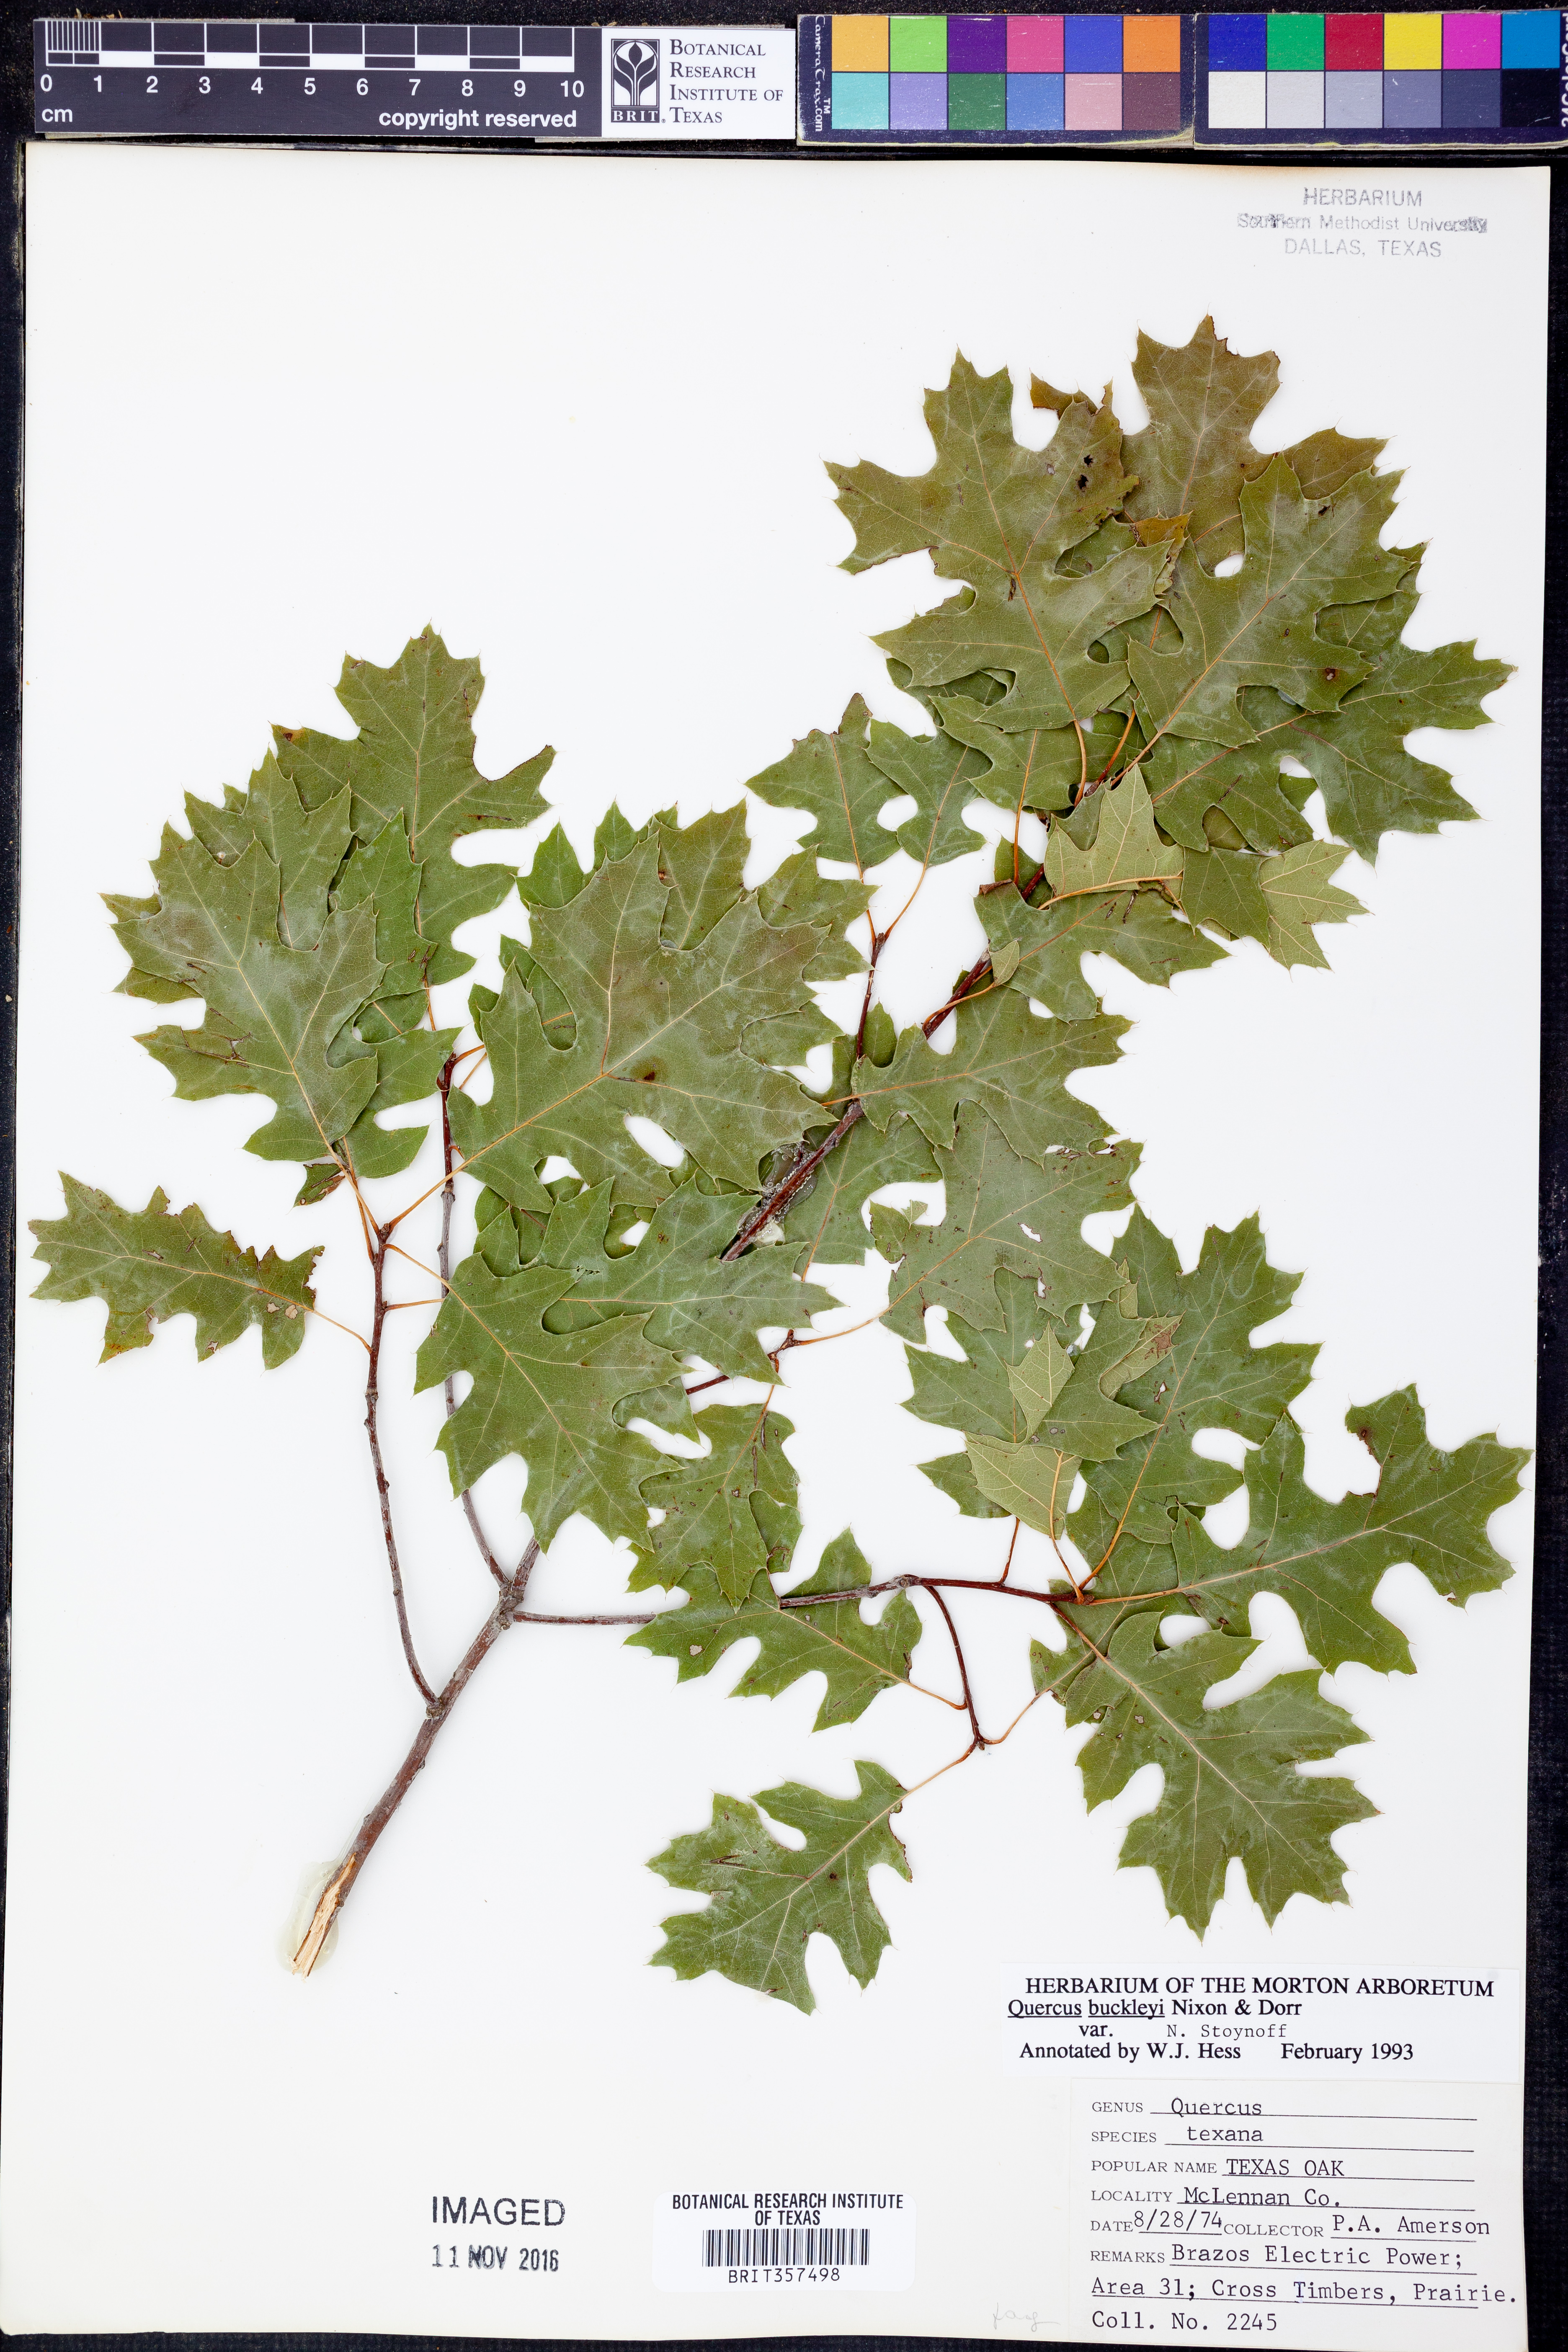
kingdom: Plantae
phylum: Tracheophyta
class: Magnoliopsida
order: Fagales
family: Fagaceae
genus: Quercus
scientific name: Quercus buckleyi
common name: Buckley oak
